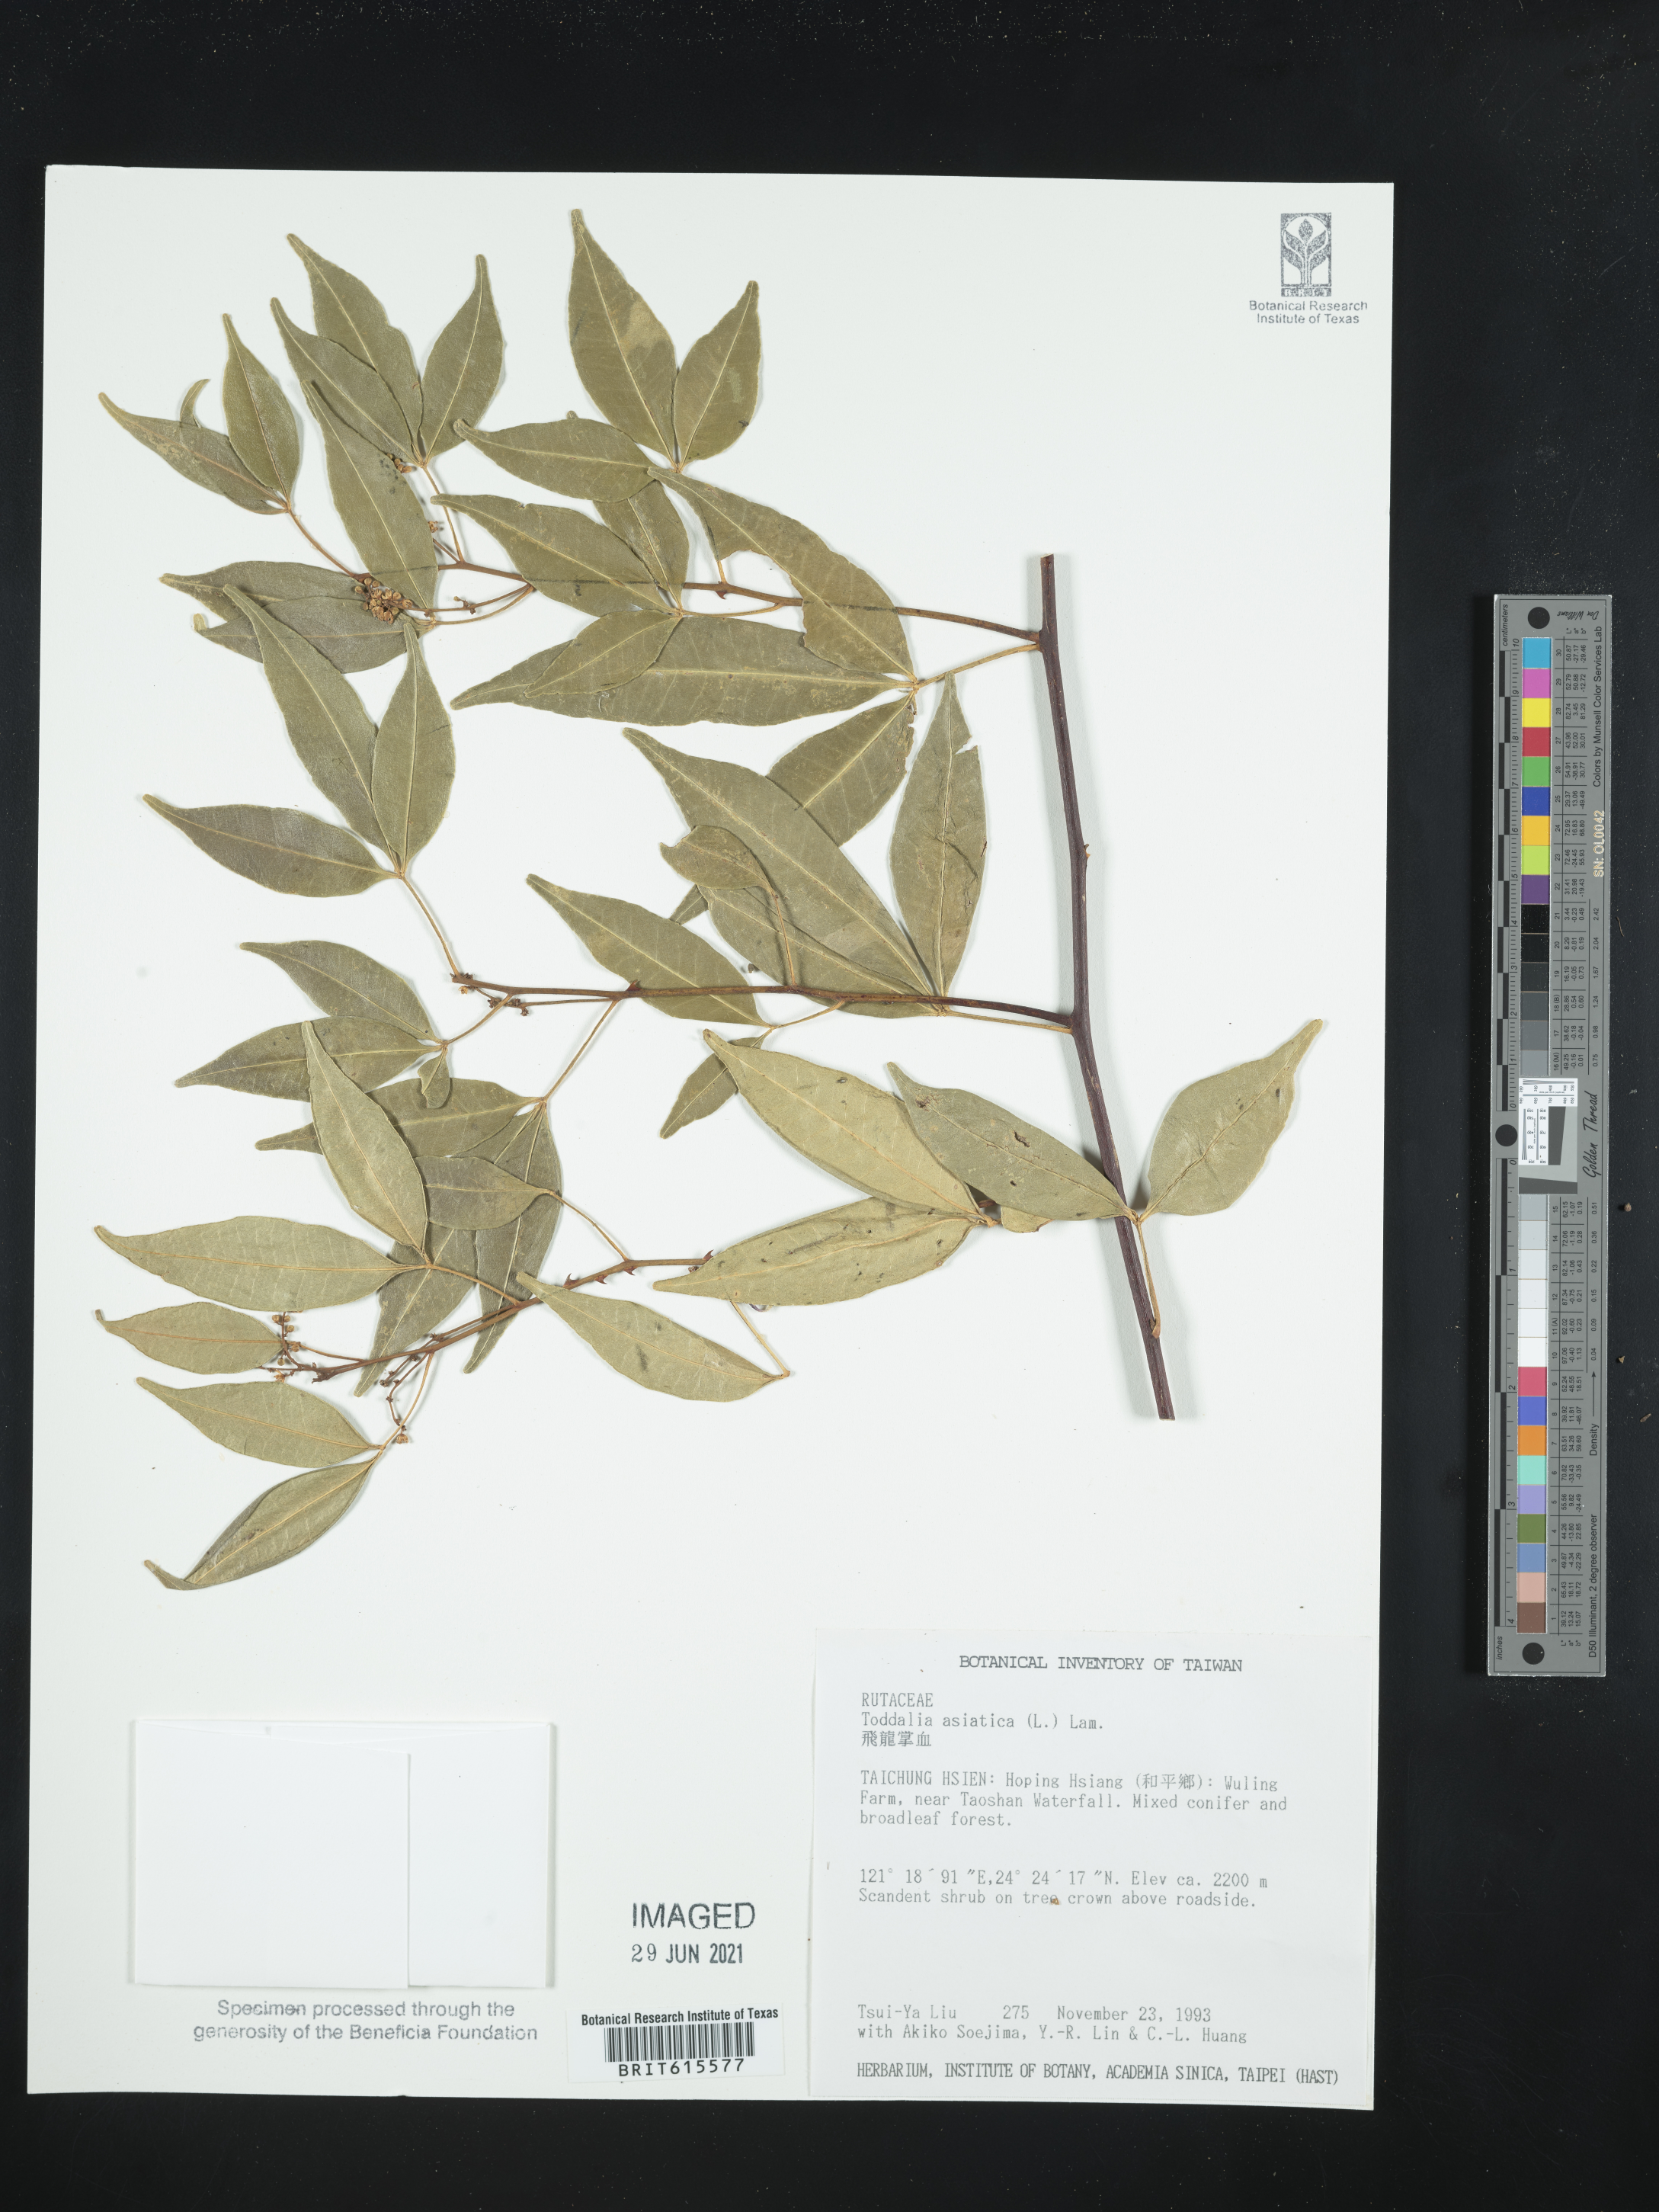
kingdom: Plantae
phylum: Tracheophyta
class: Magnoliopsida
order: Sapindales
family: Rutaceae
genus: Zanthoxylum
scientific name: Zanthoxylum asiaticum
